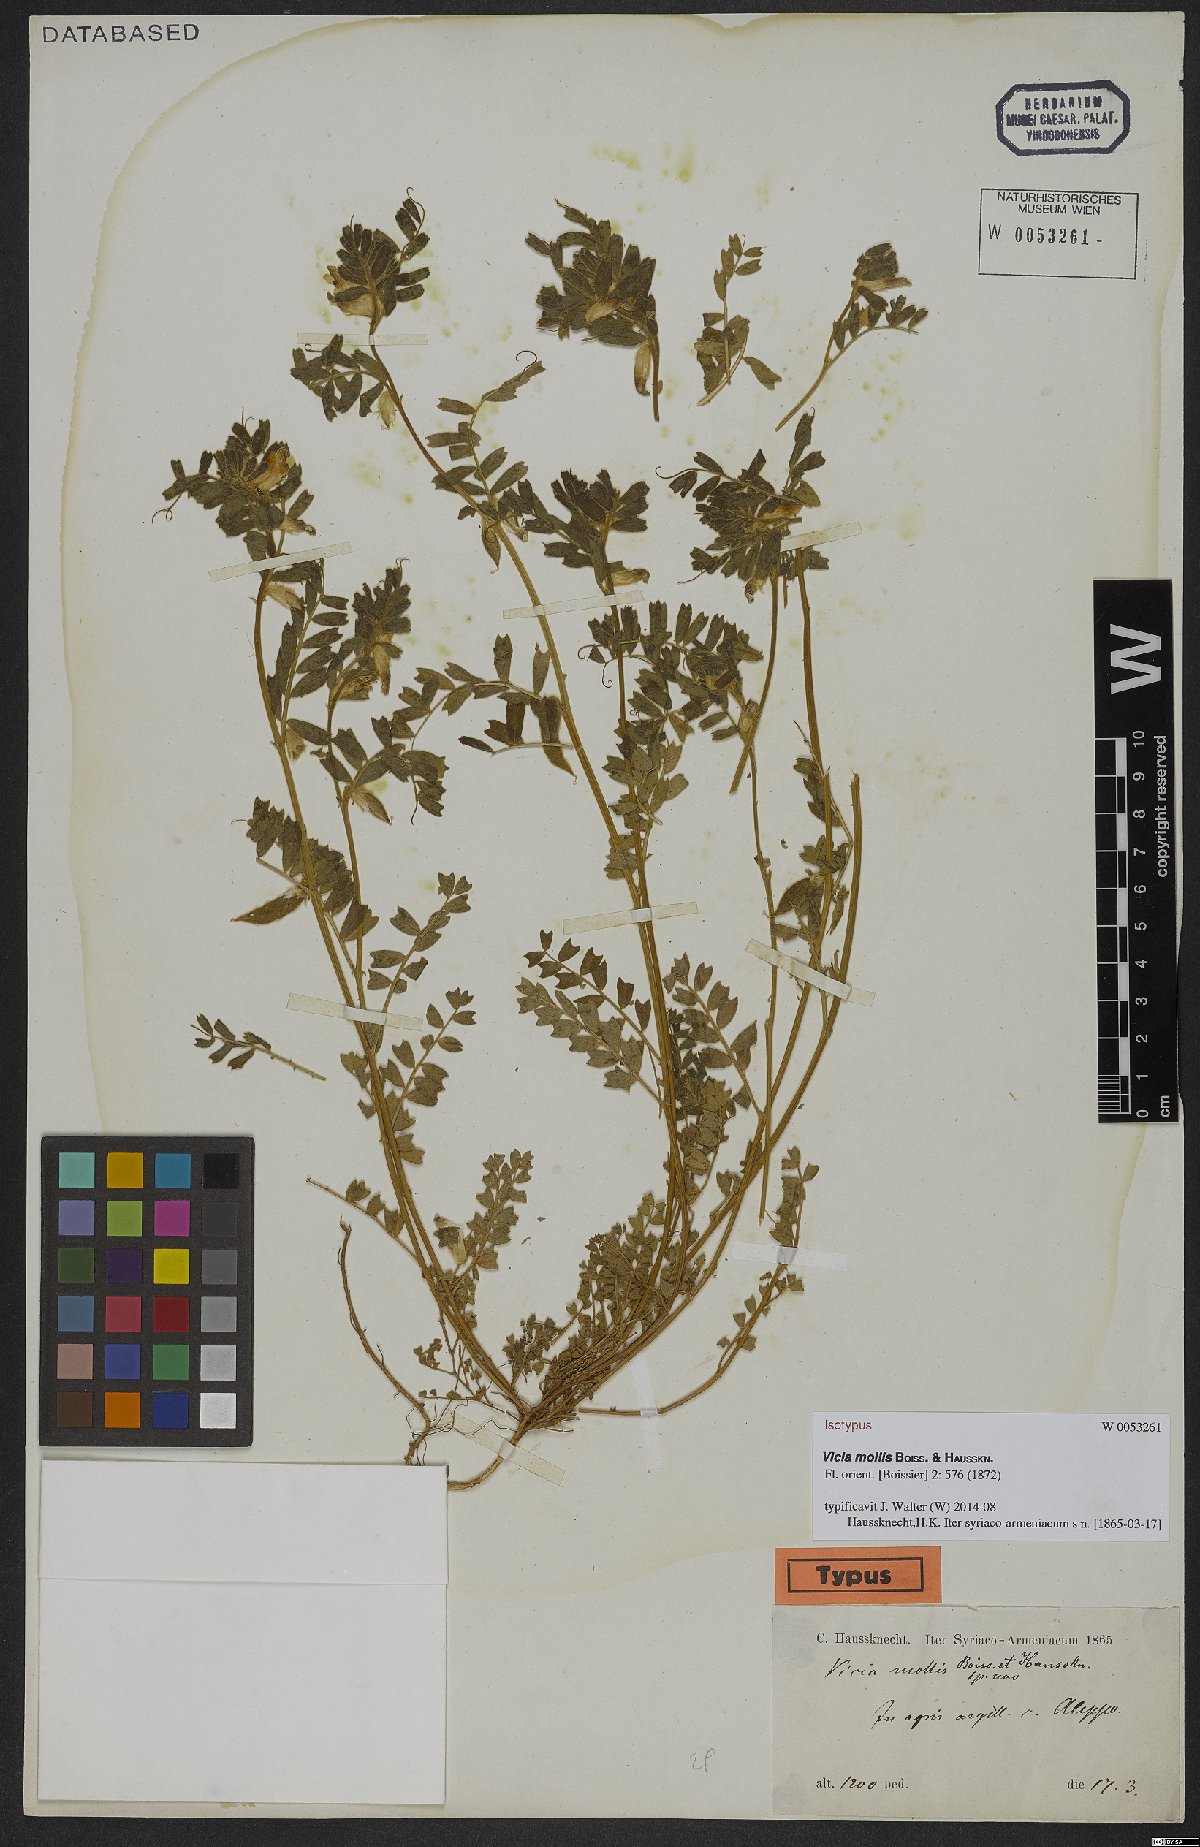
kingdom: Plantae
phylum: Tracheophyta
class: Magnoliopsida
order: Fabales
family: Fabaceae
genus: Vicia
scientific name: Vicia mollis
